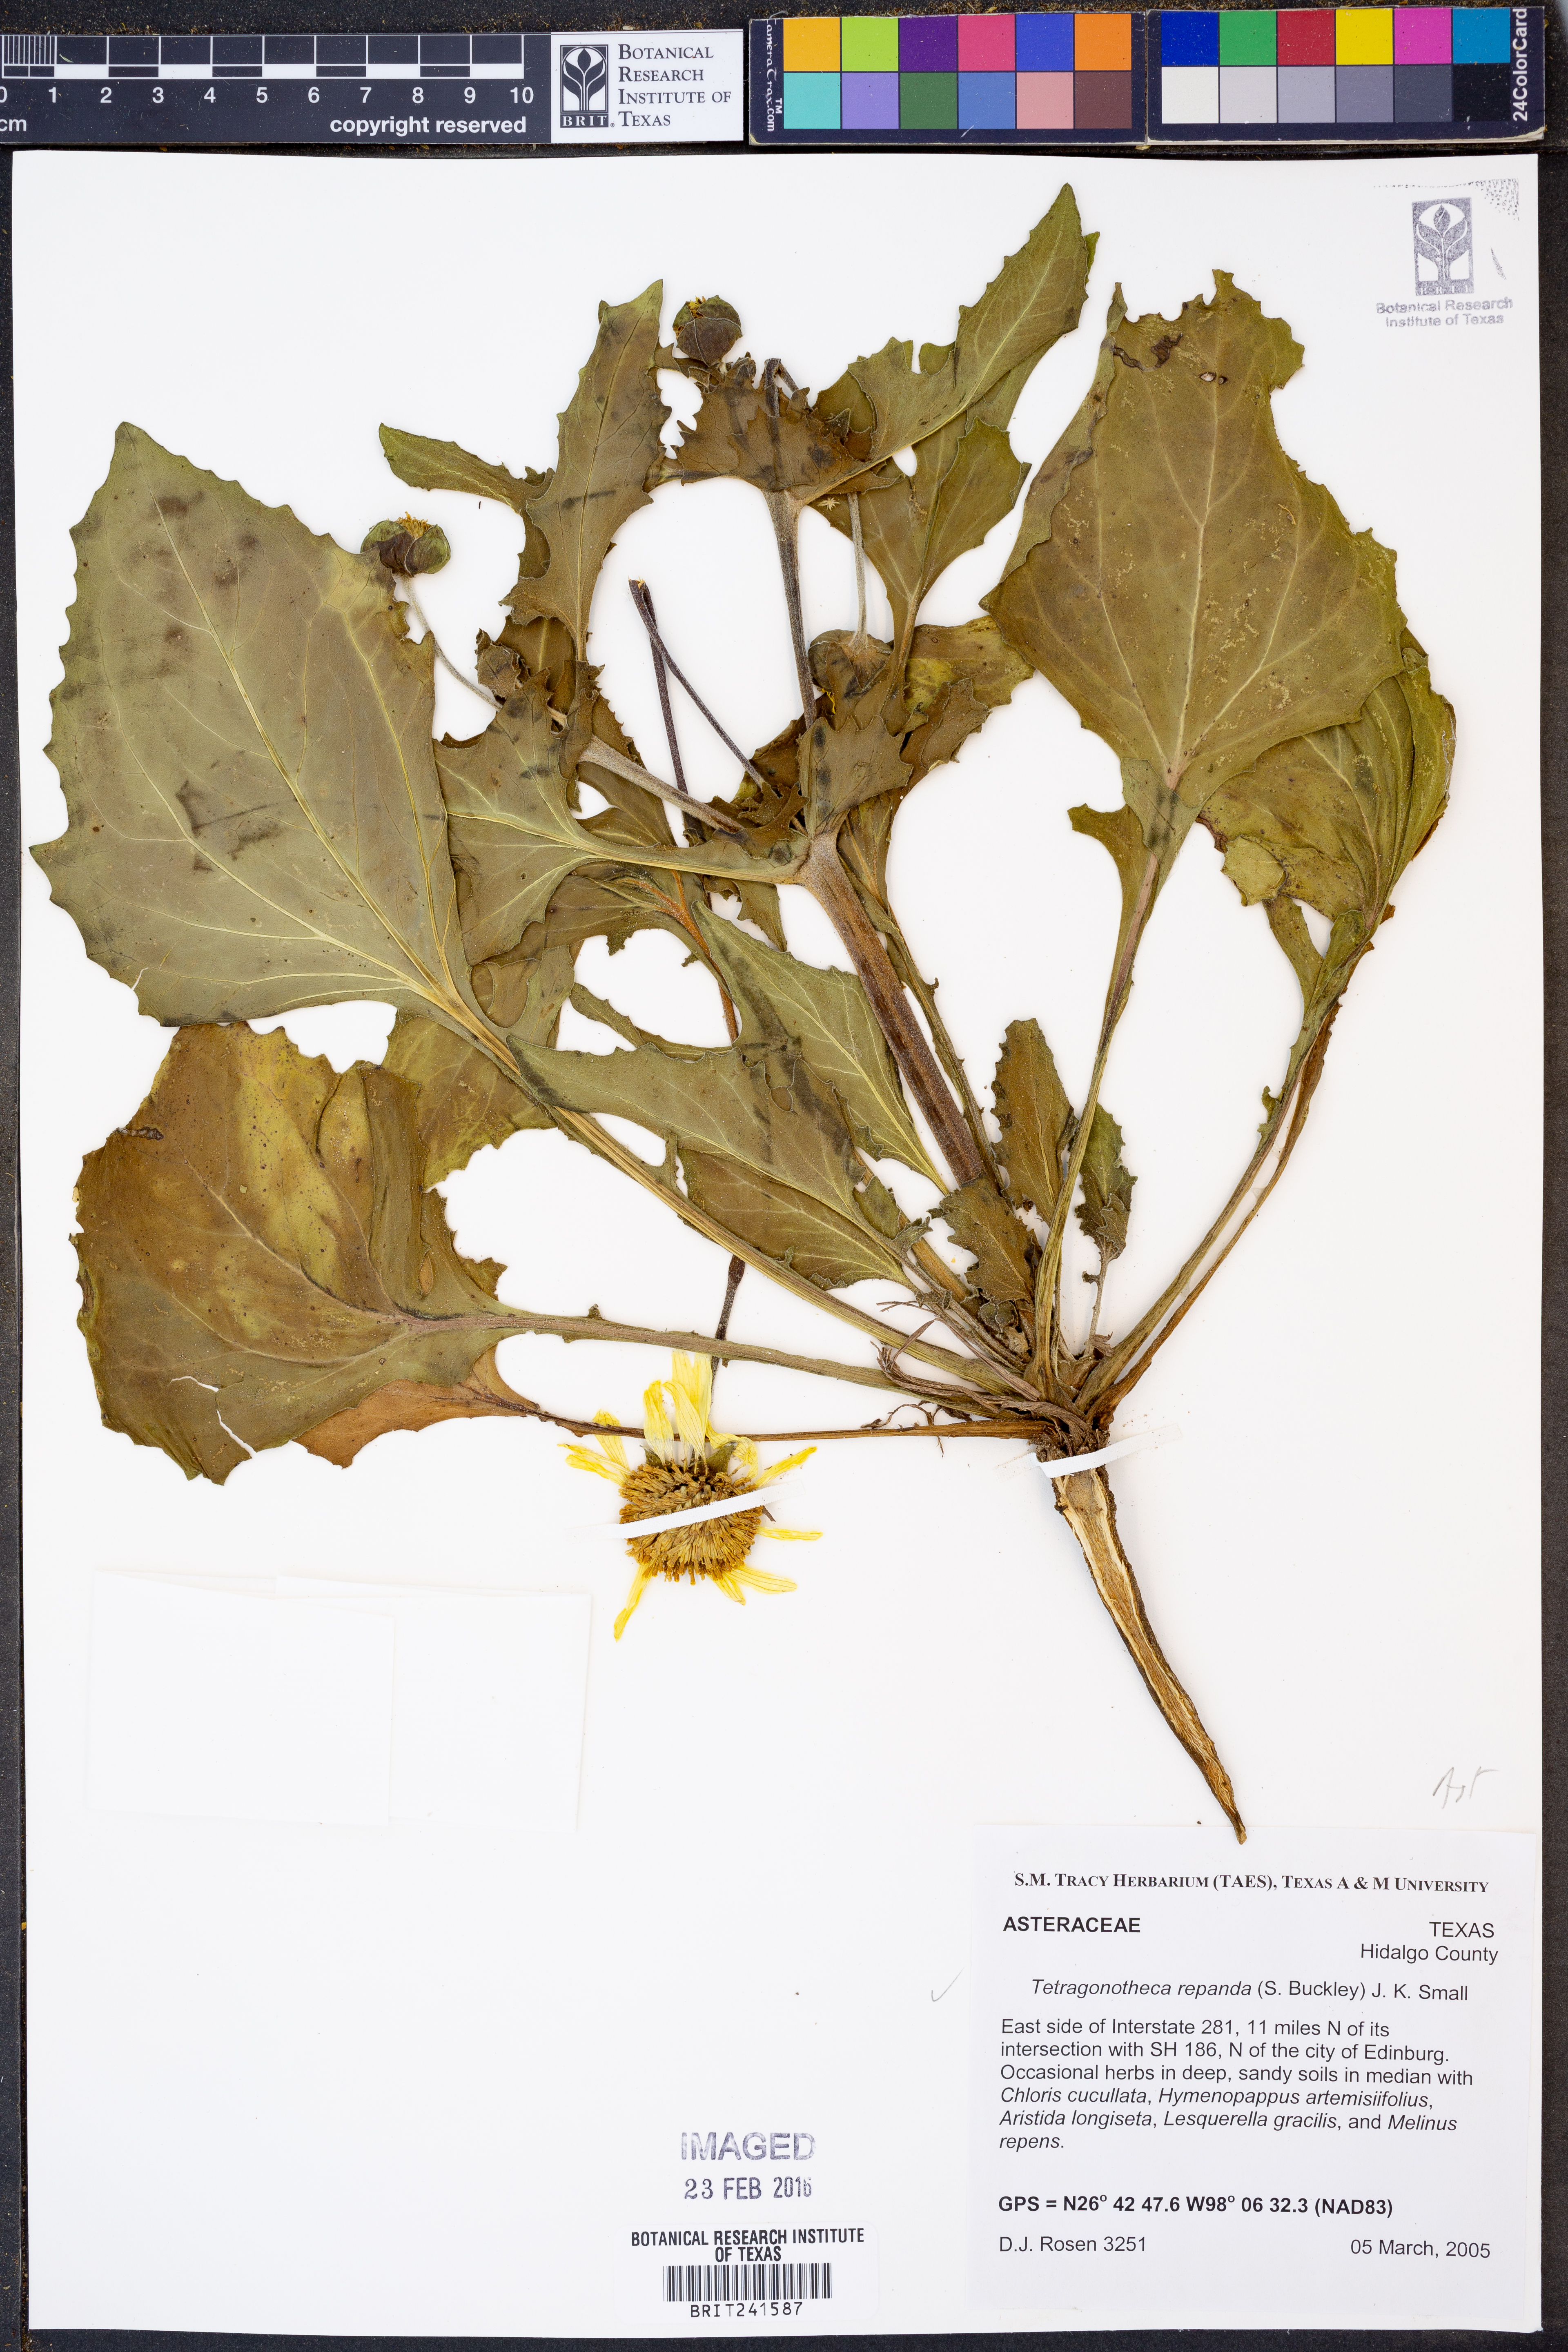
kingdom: Plantae
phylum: Tracheophyta
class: Magnoliopsida
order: Asterales
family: Asteraceae
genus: Tetragonotheca
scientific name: Tetragonotheca repanda
